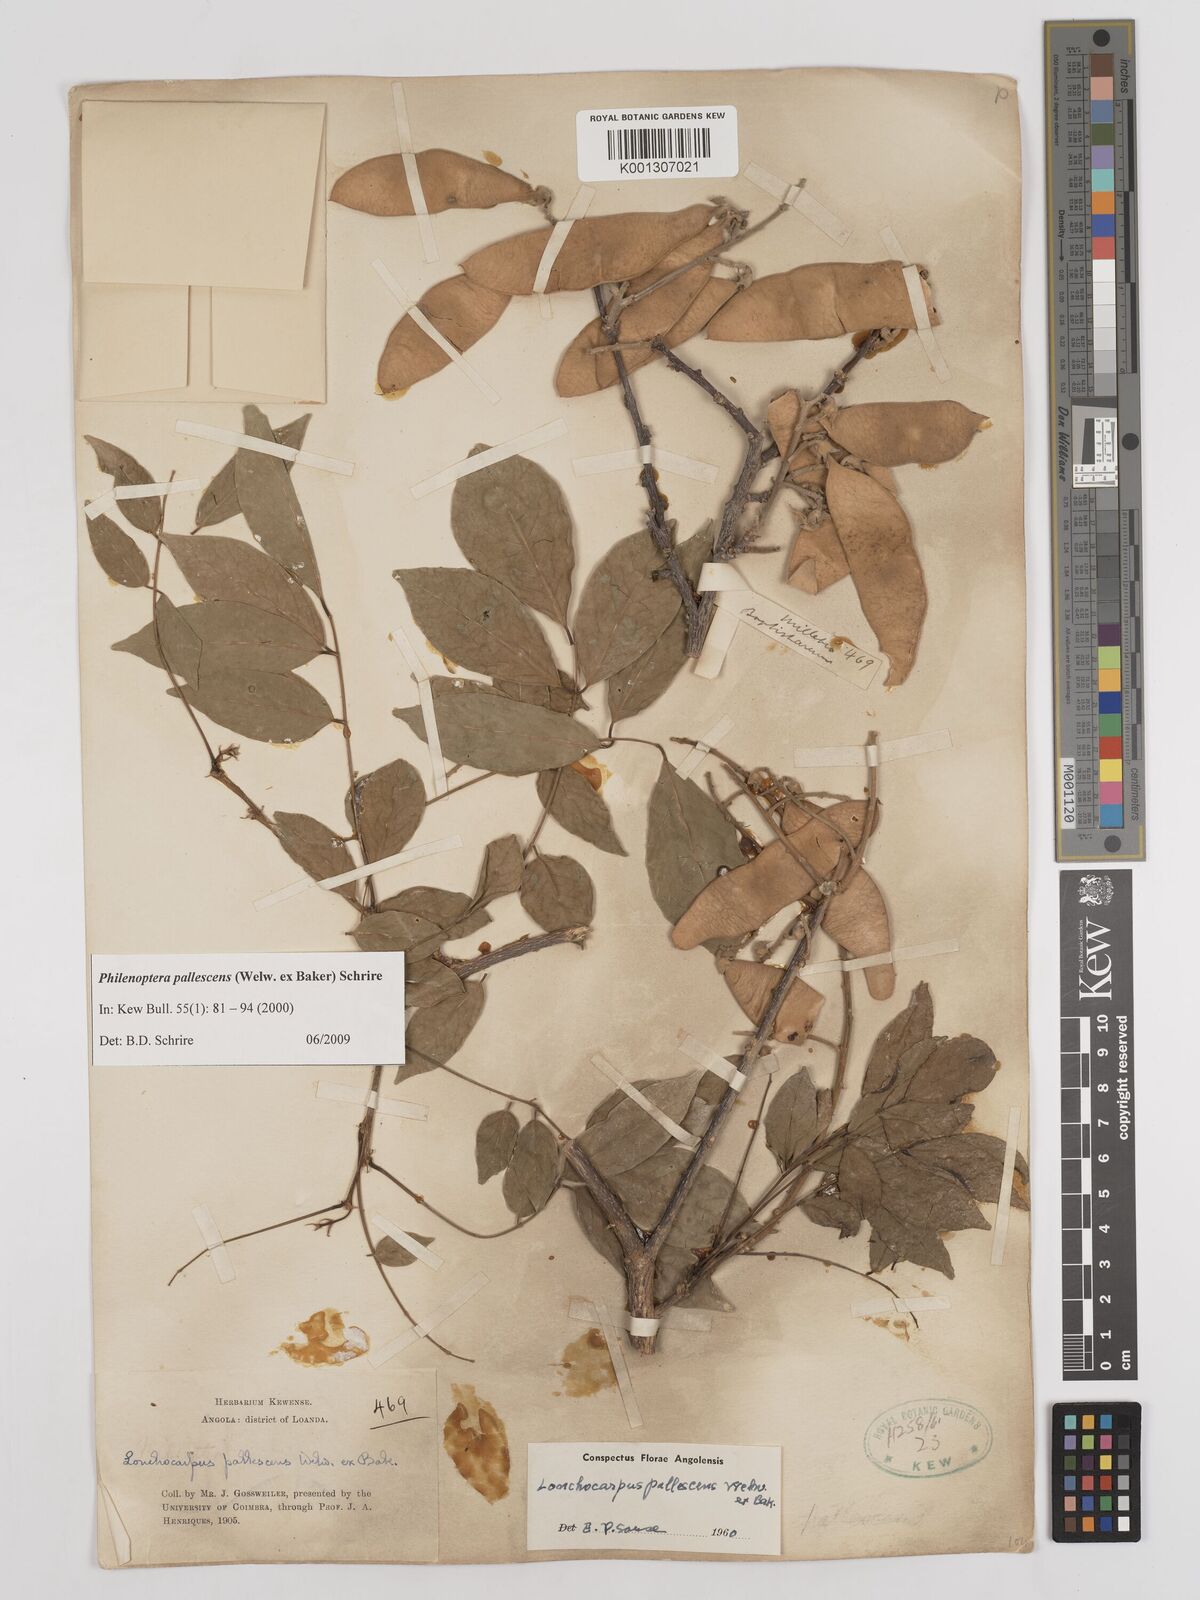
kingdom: Plantae
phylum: Tracheophyta
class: Magnoliopsida
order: Fabales
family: Fabaceae
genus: Philenoptera
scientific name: Philenoptera pallescens
